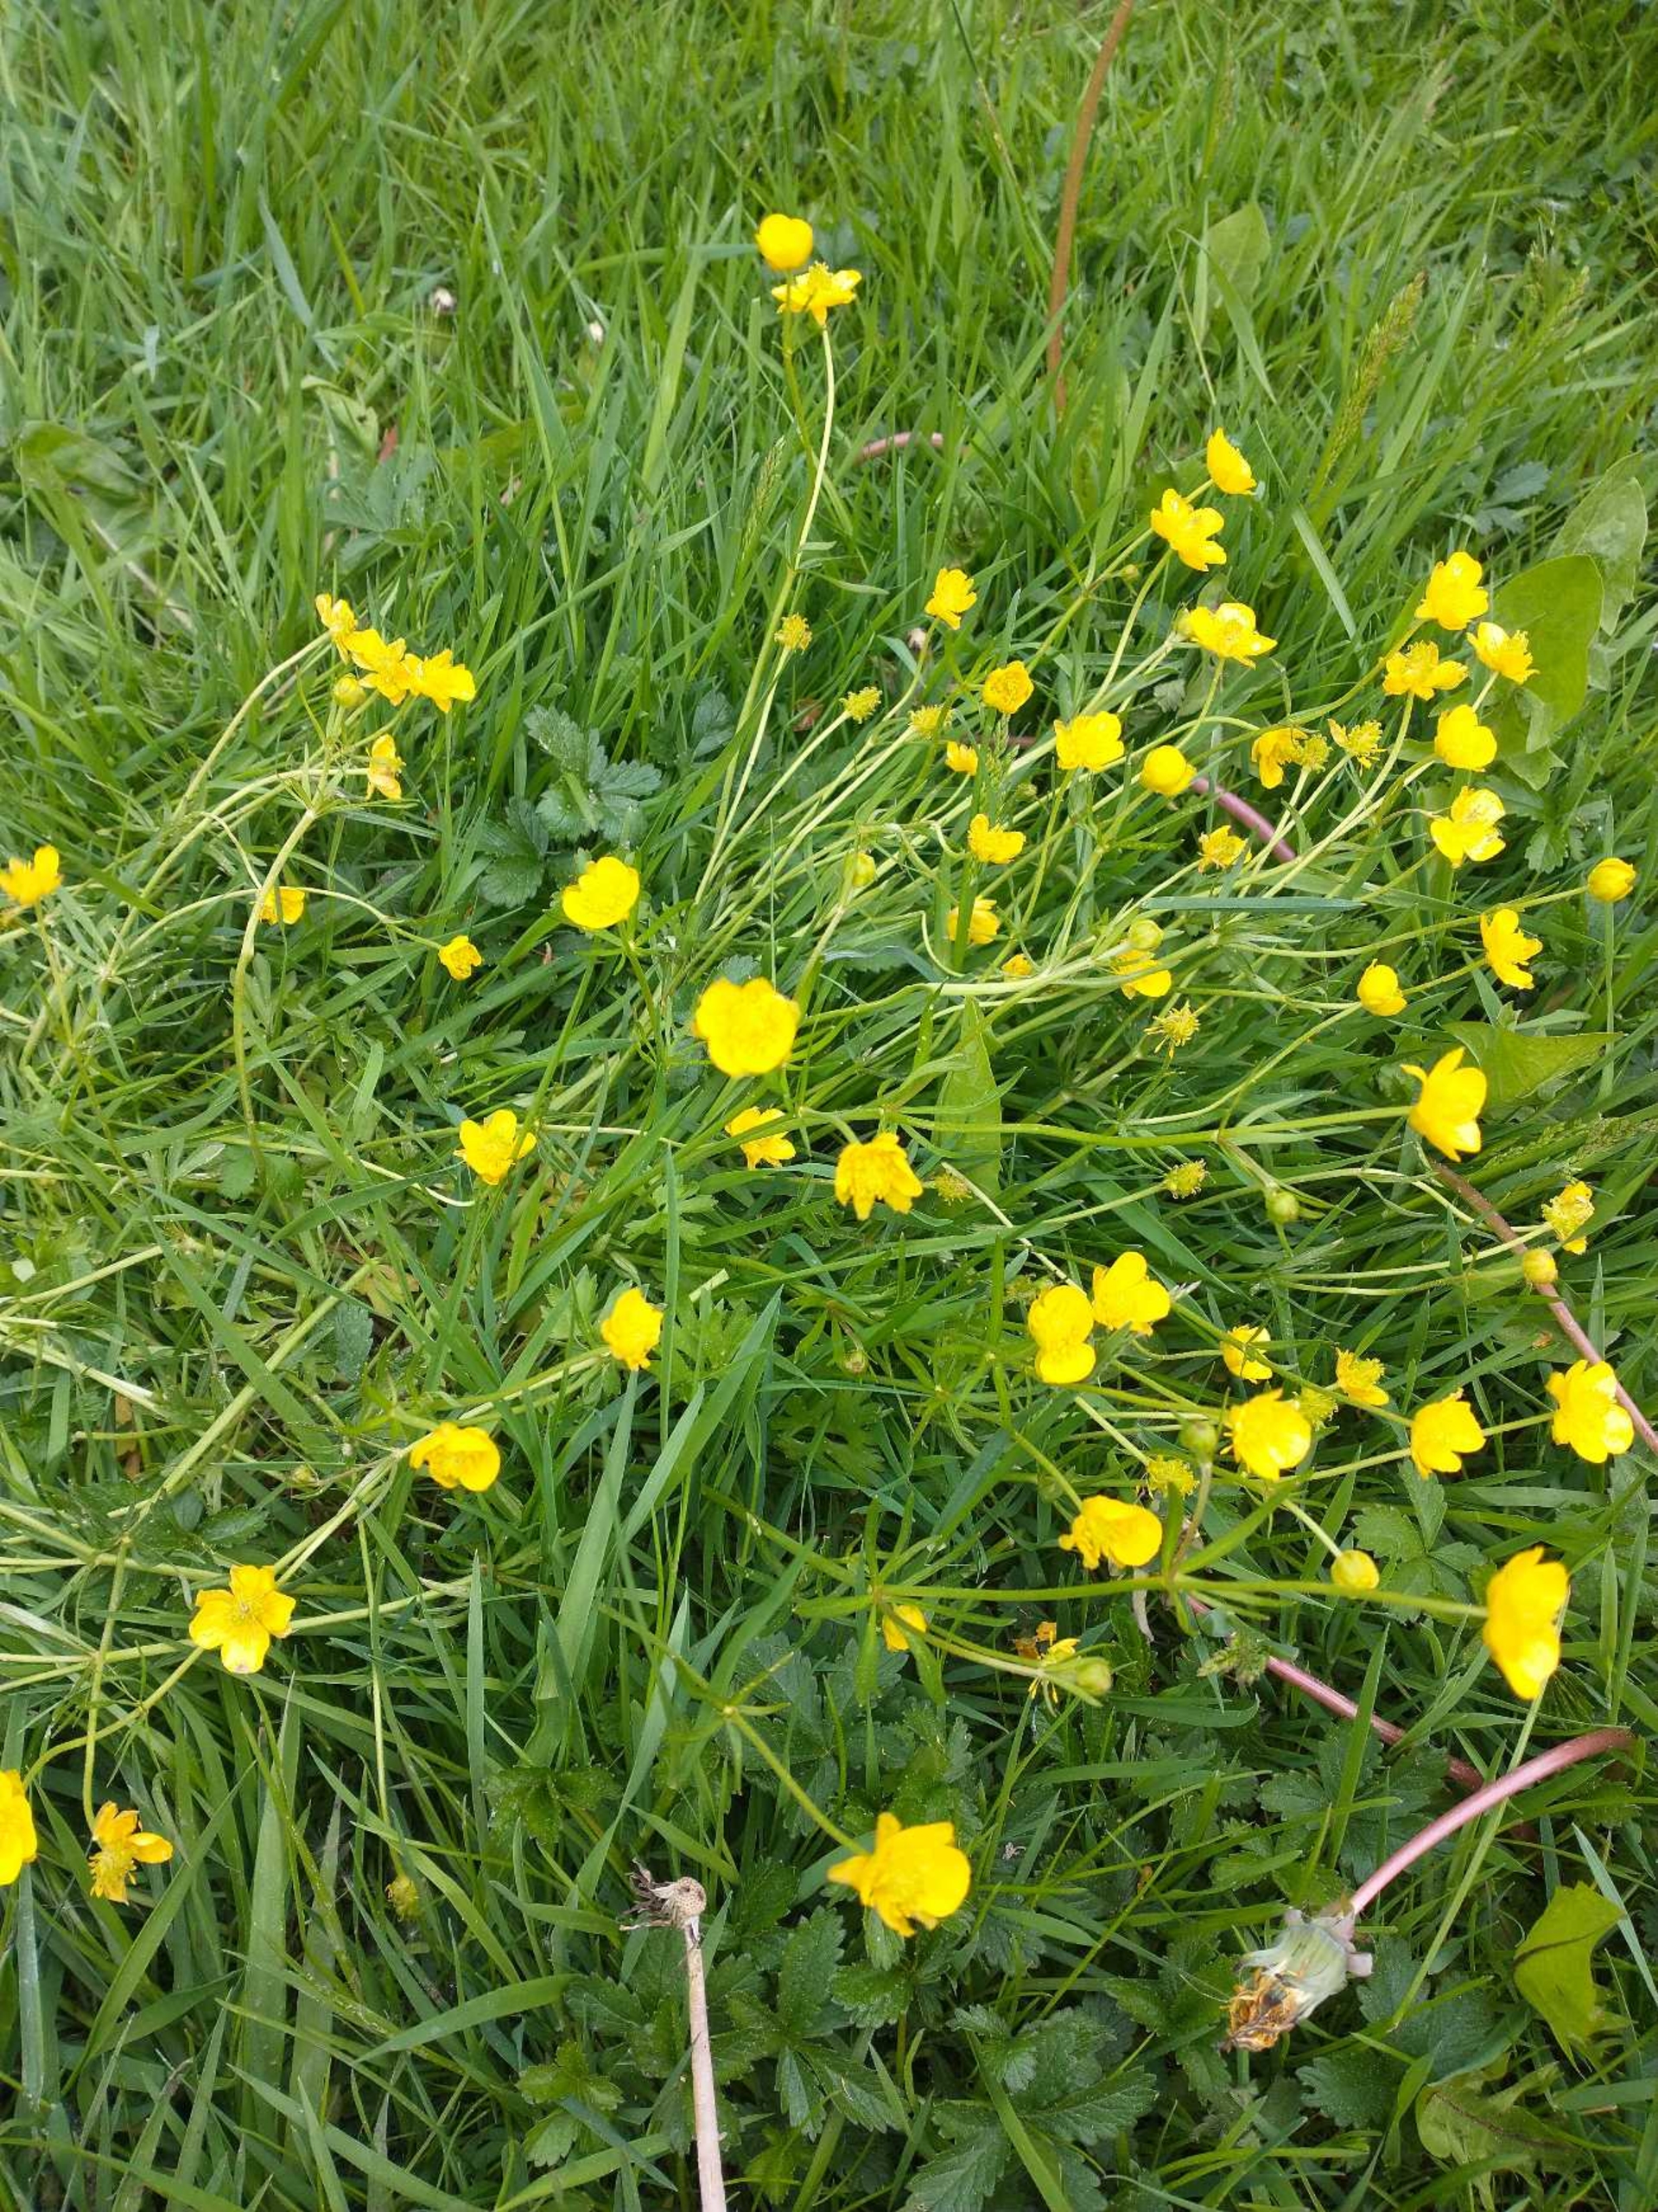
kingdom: Plantae
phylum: Tracheophyta
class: Magnoliopsida
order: Ranunculales
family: Ranunculaceae
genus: Ranunculus
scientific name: Ranunculus auricomus
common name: Nyrebladet ranunkel
